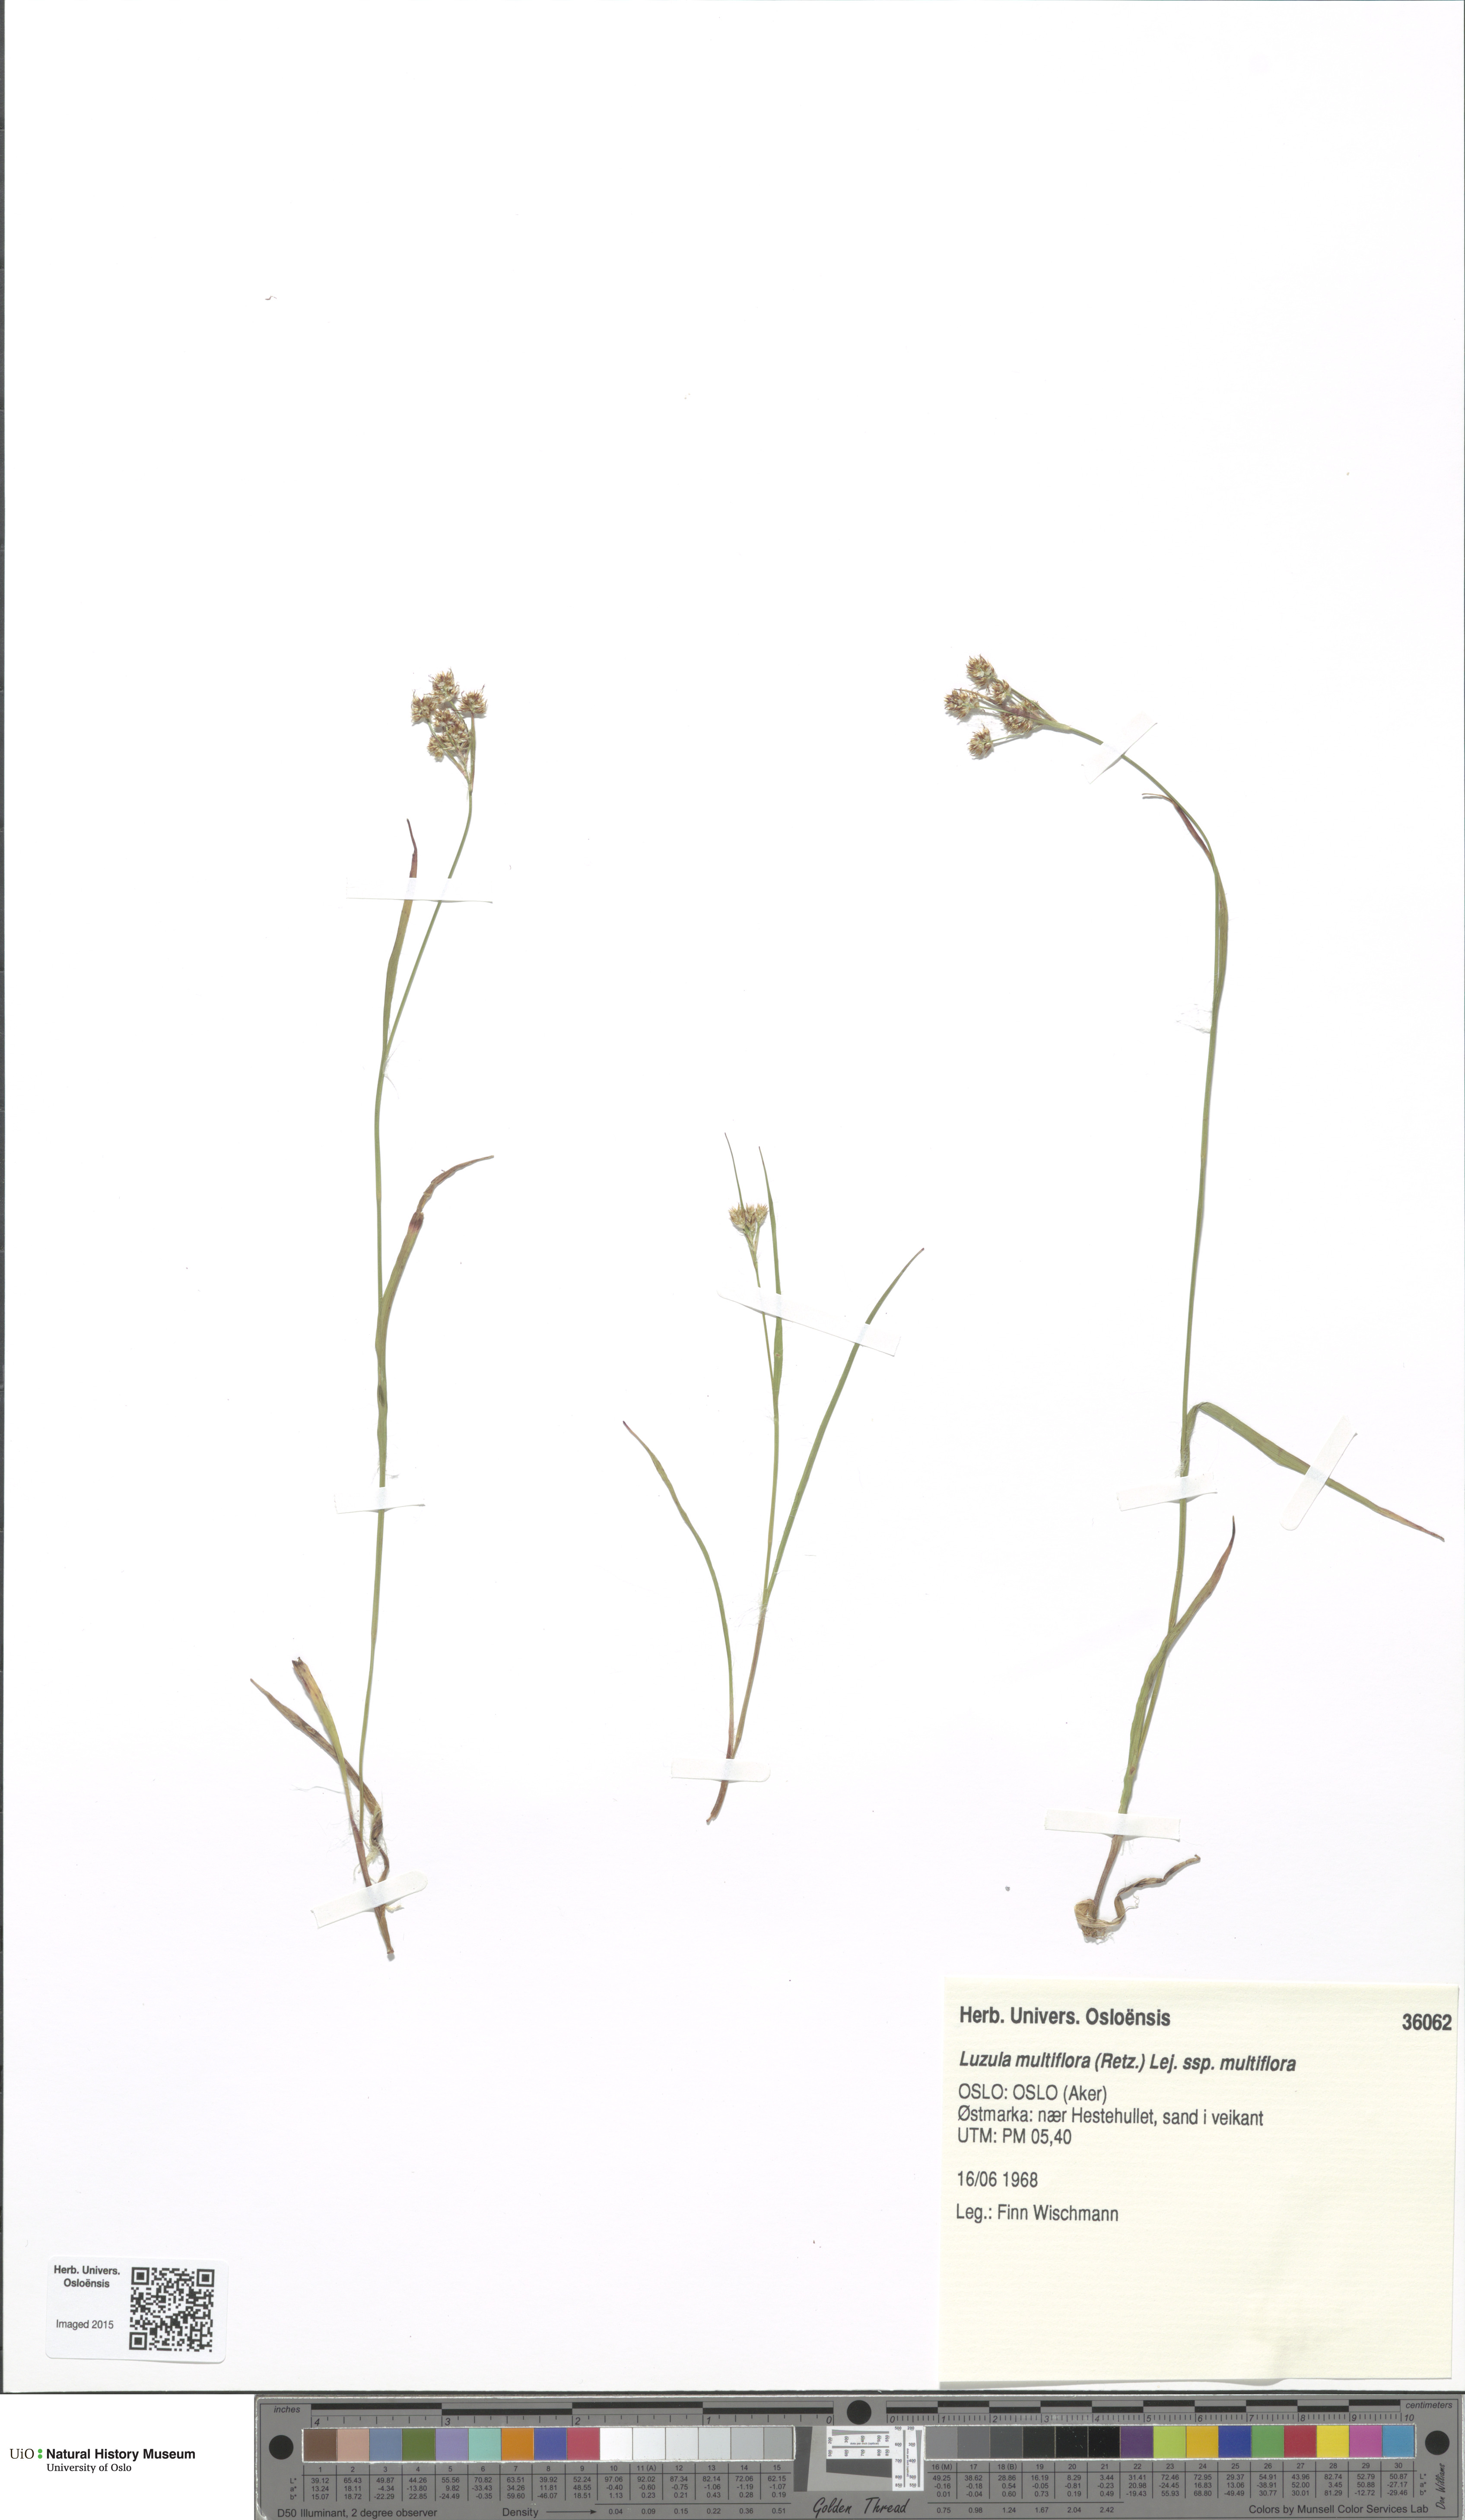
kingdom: Plantae
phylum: Tracheophyta
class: Liliopsida
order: Poales
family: Juncaceae
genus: Luzula
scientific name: Luzula multiflora
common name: Heath wood-rush
